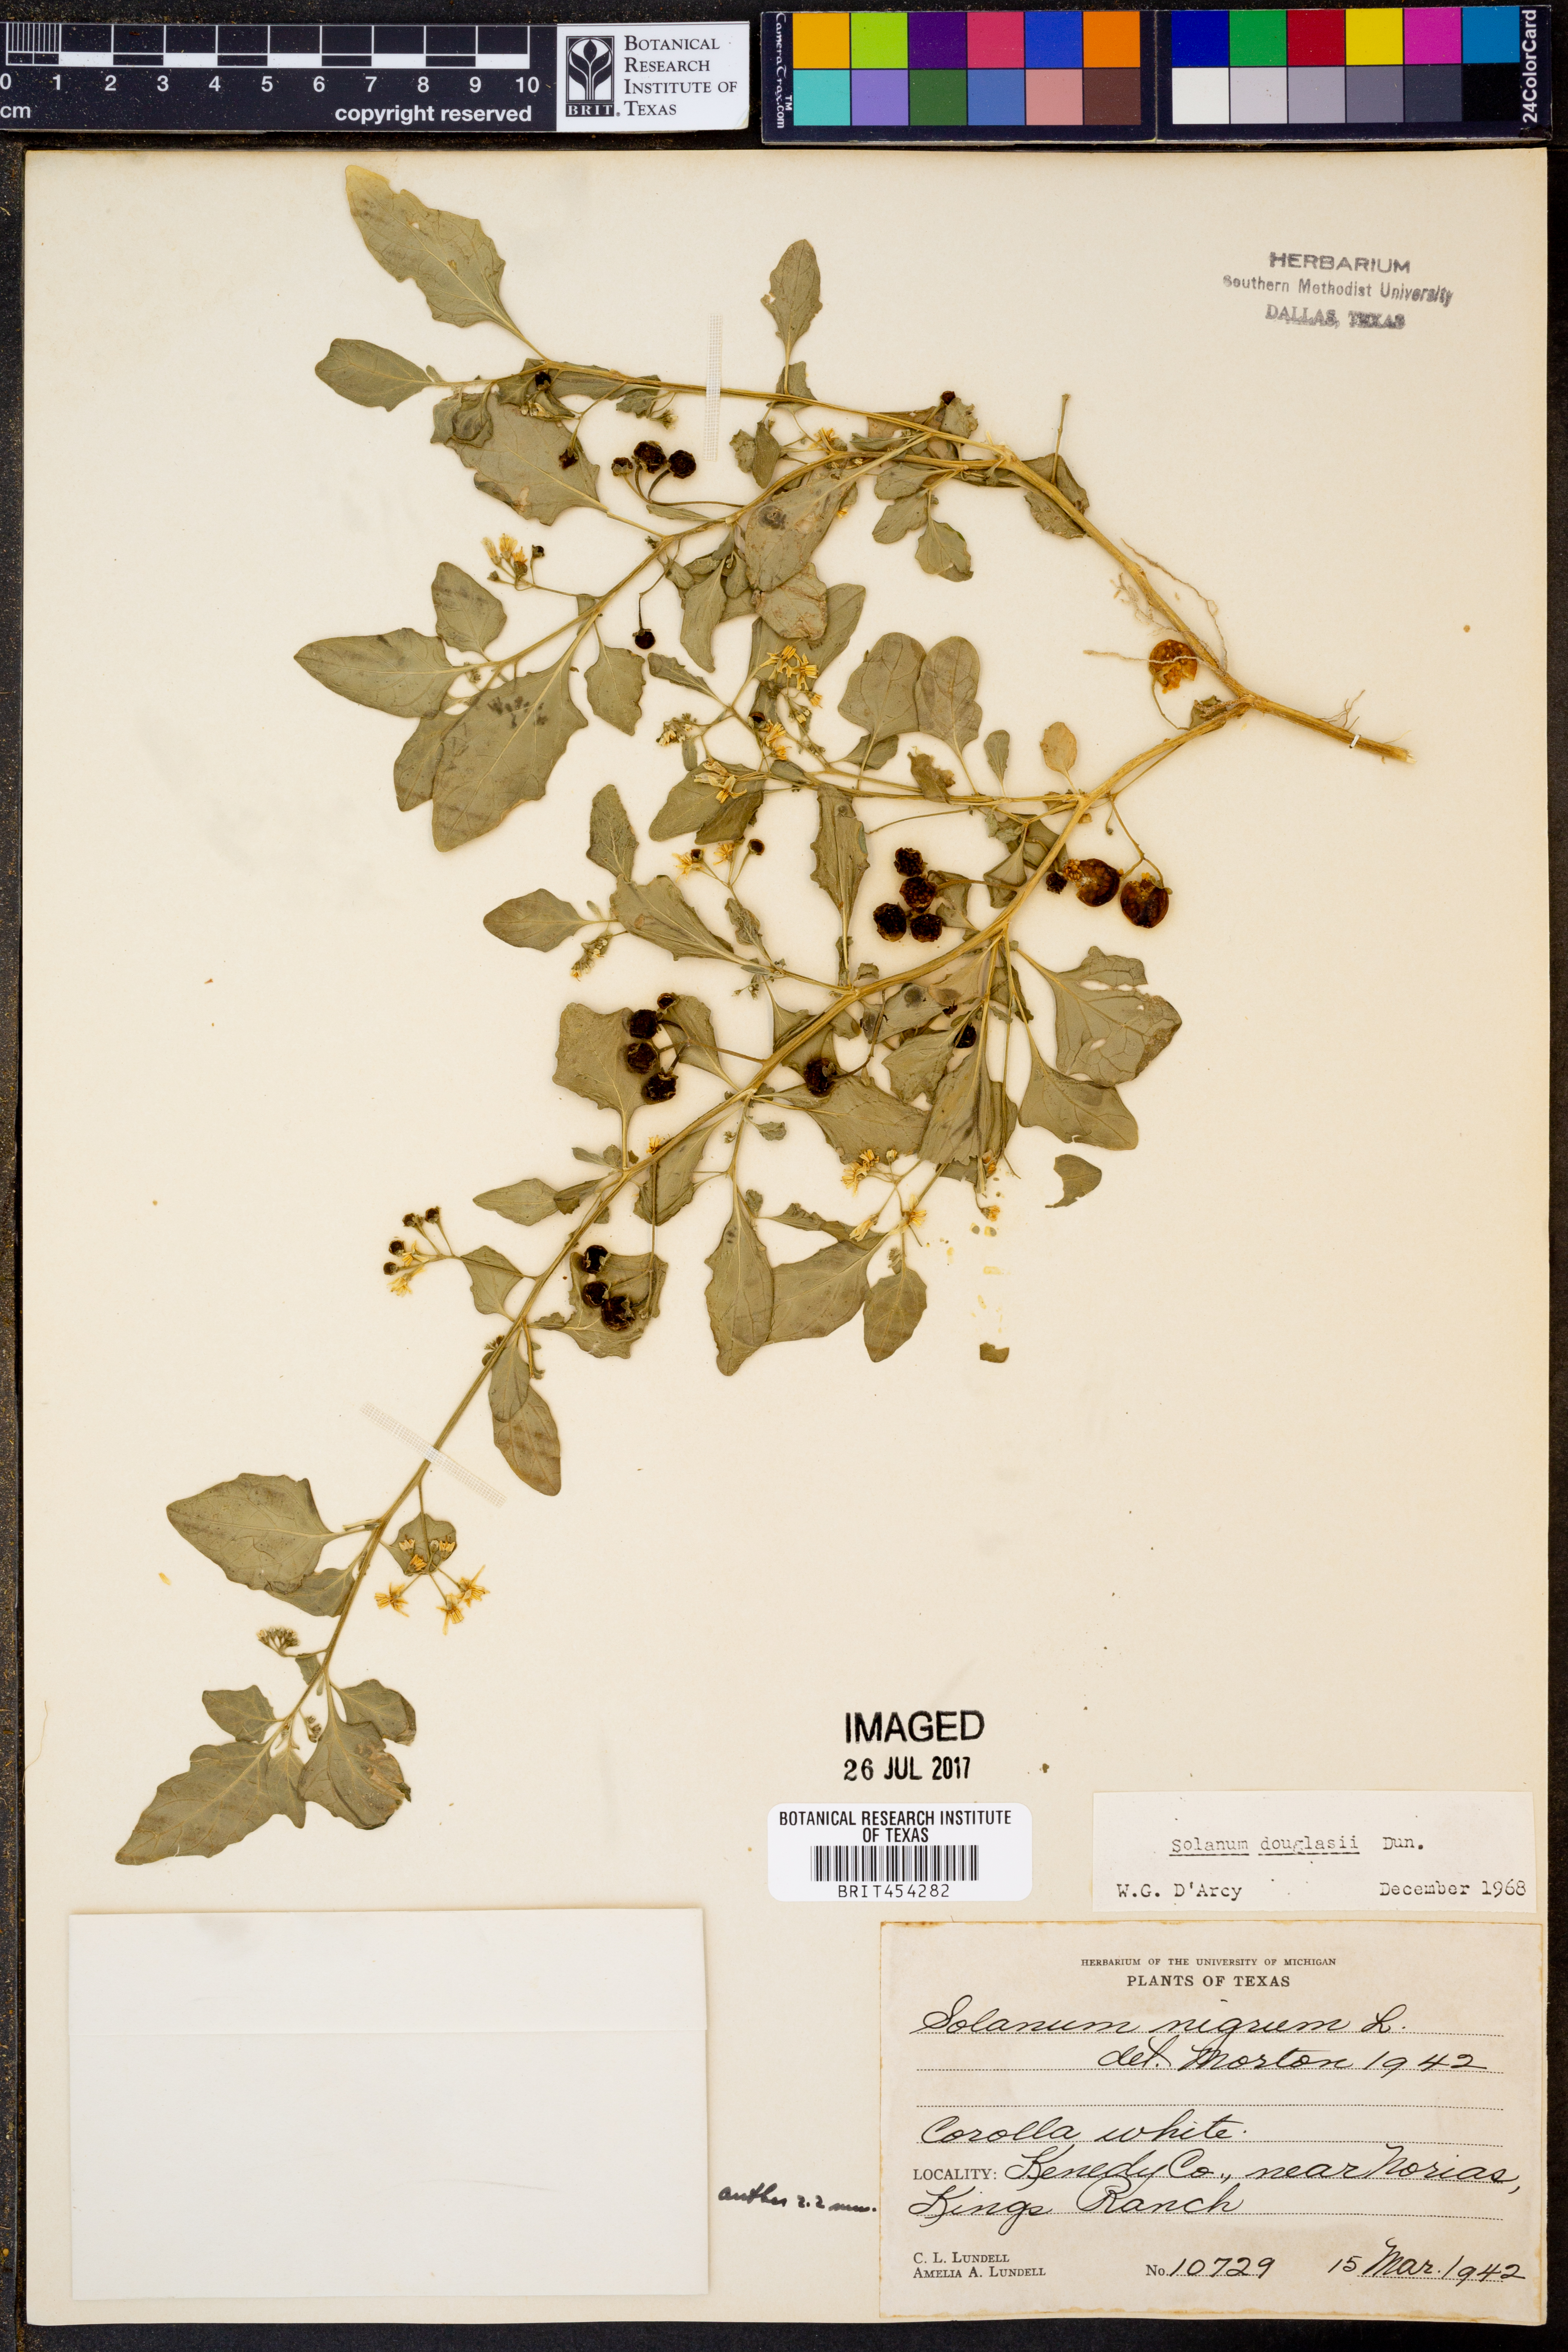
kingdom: Plantae
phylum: Tracheophyta
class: Magnoliopsida
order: Solanales
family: Solanaceae
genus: Solanum
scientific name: Solanum douglasii
